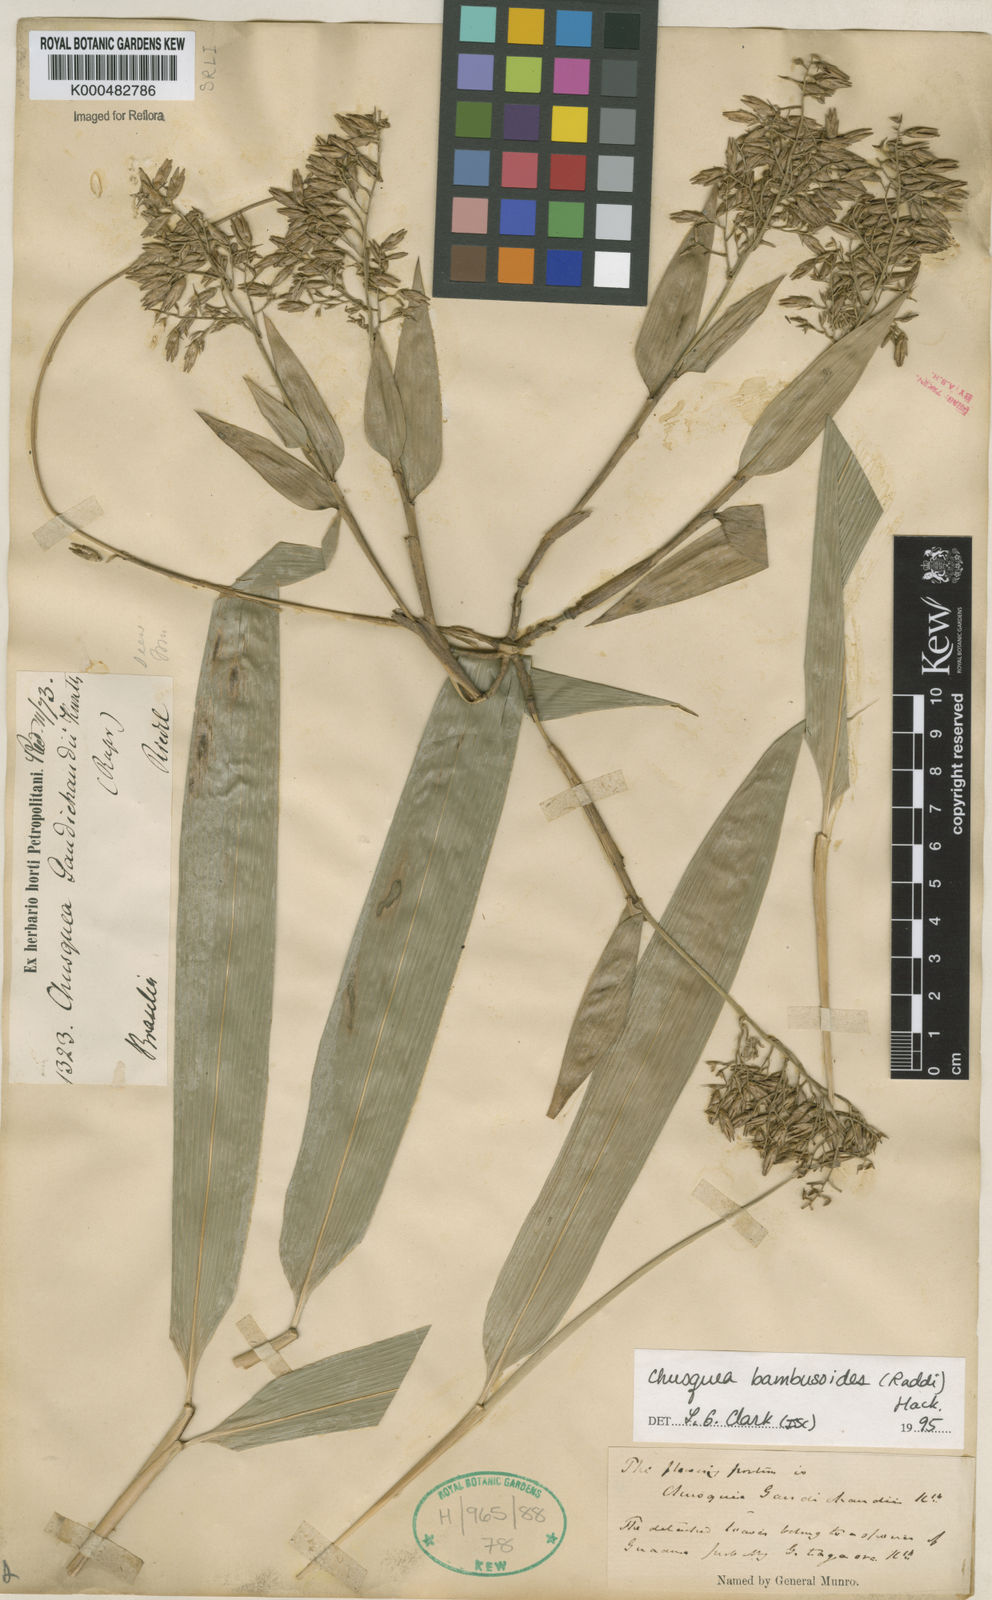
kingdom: Plantae
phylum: Tracheophyta
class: Liliopsida
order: Poales
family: Poaceae
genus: Chusquea
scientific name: Chusquea bambusoides
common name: Brazil scrambling bamboo
